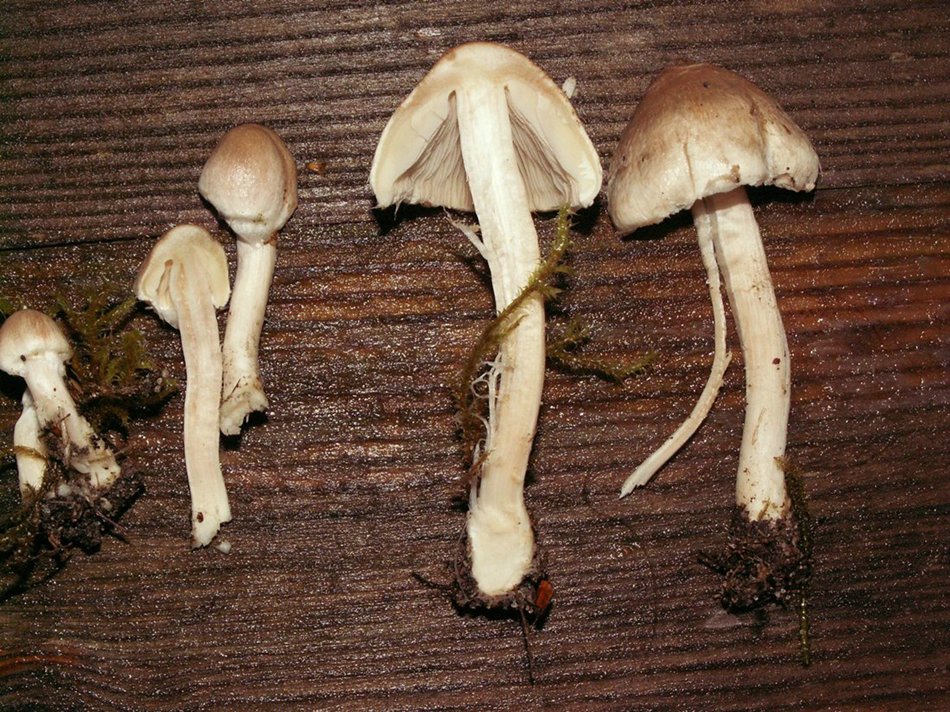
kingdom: Fungi
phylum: Basidiomycota
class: Agaricomycetes
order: Agaricales
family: Inocybaceae
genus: Inocybe
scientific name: Inocybe sindonia
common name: bleg trævlhat
